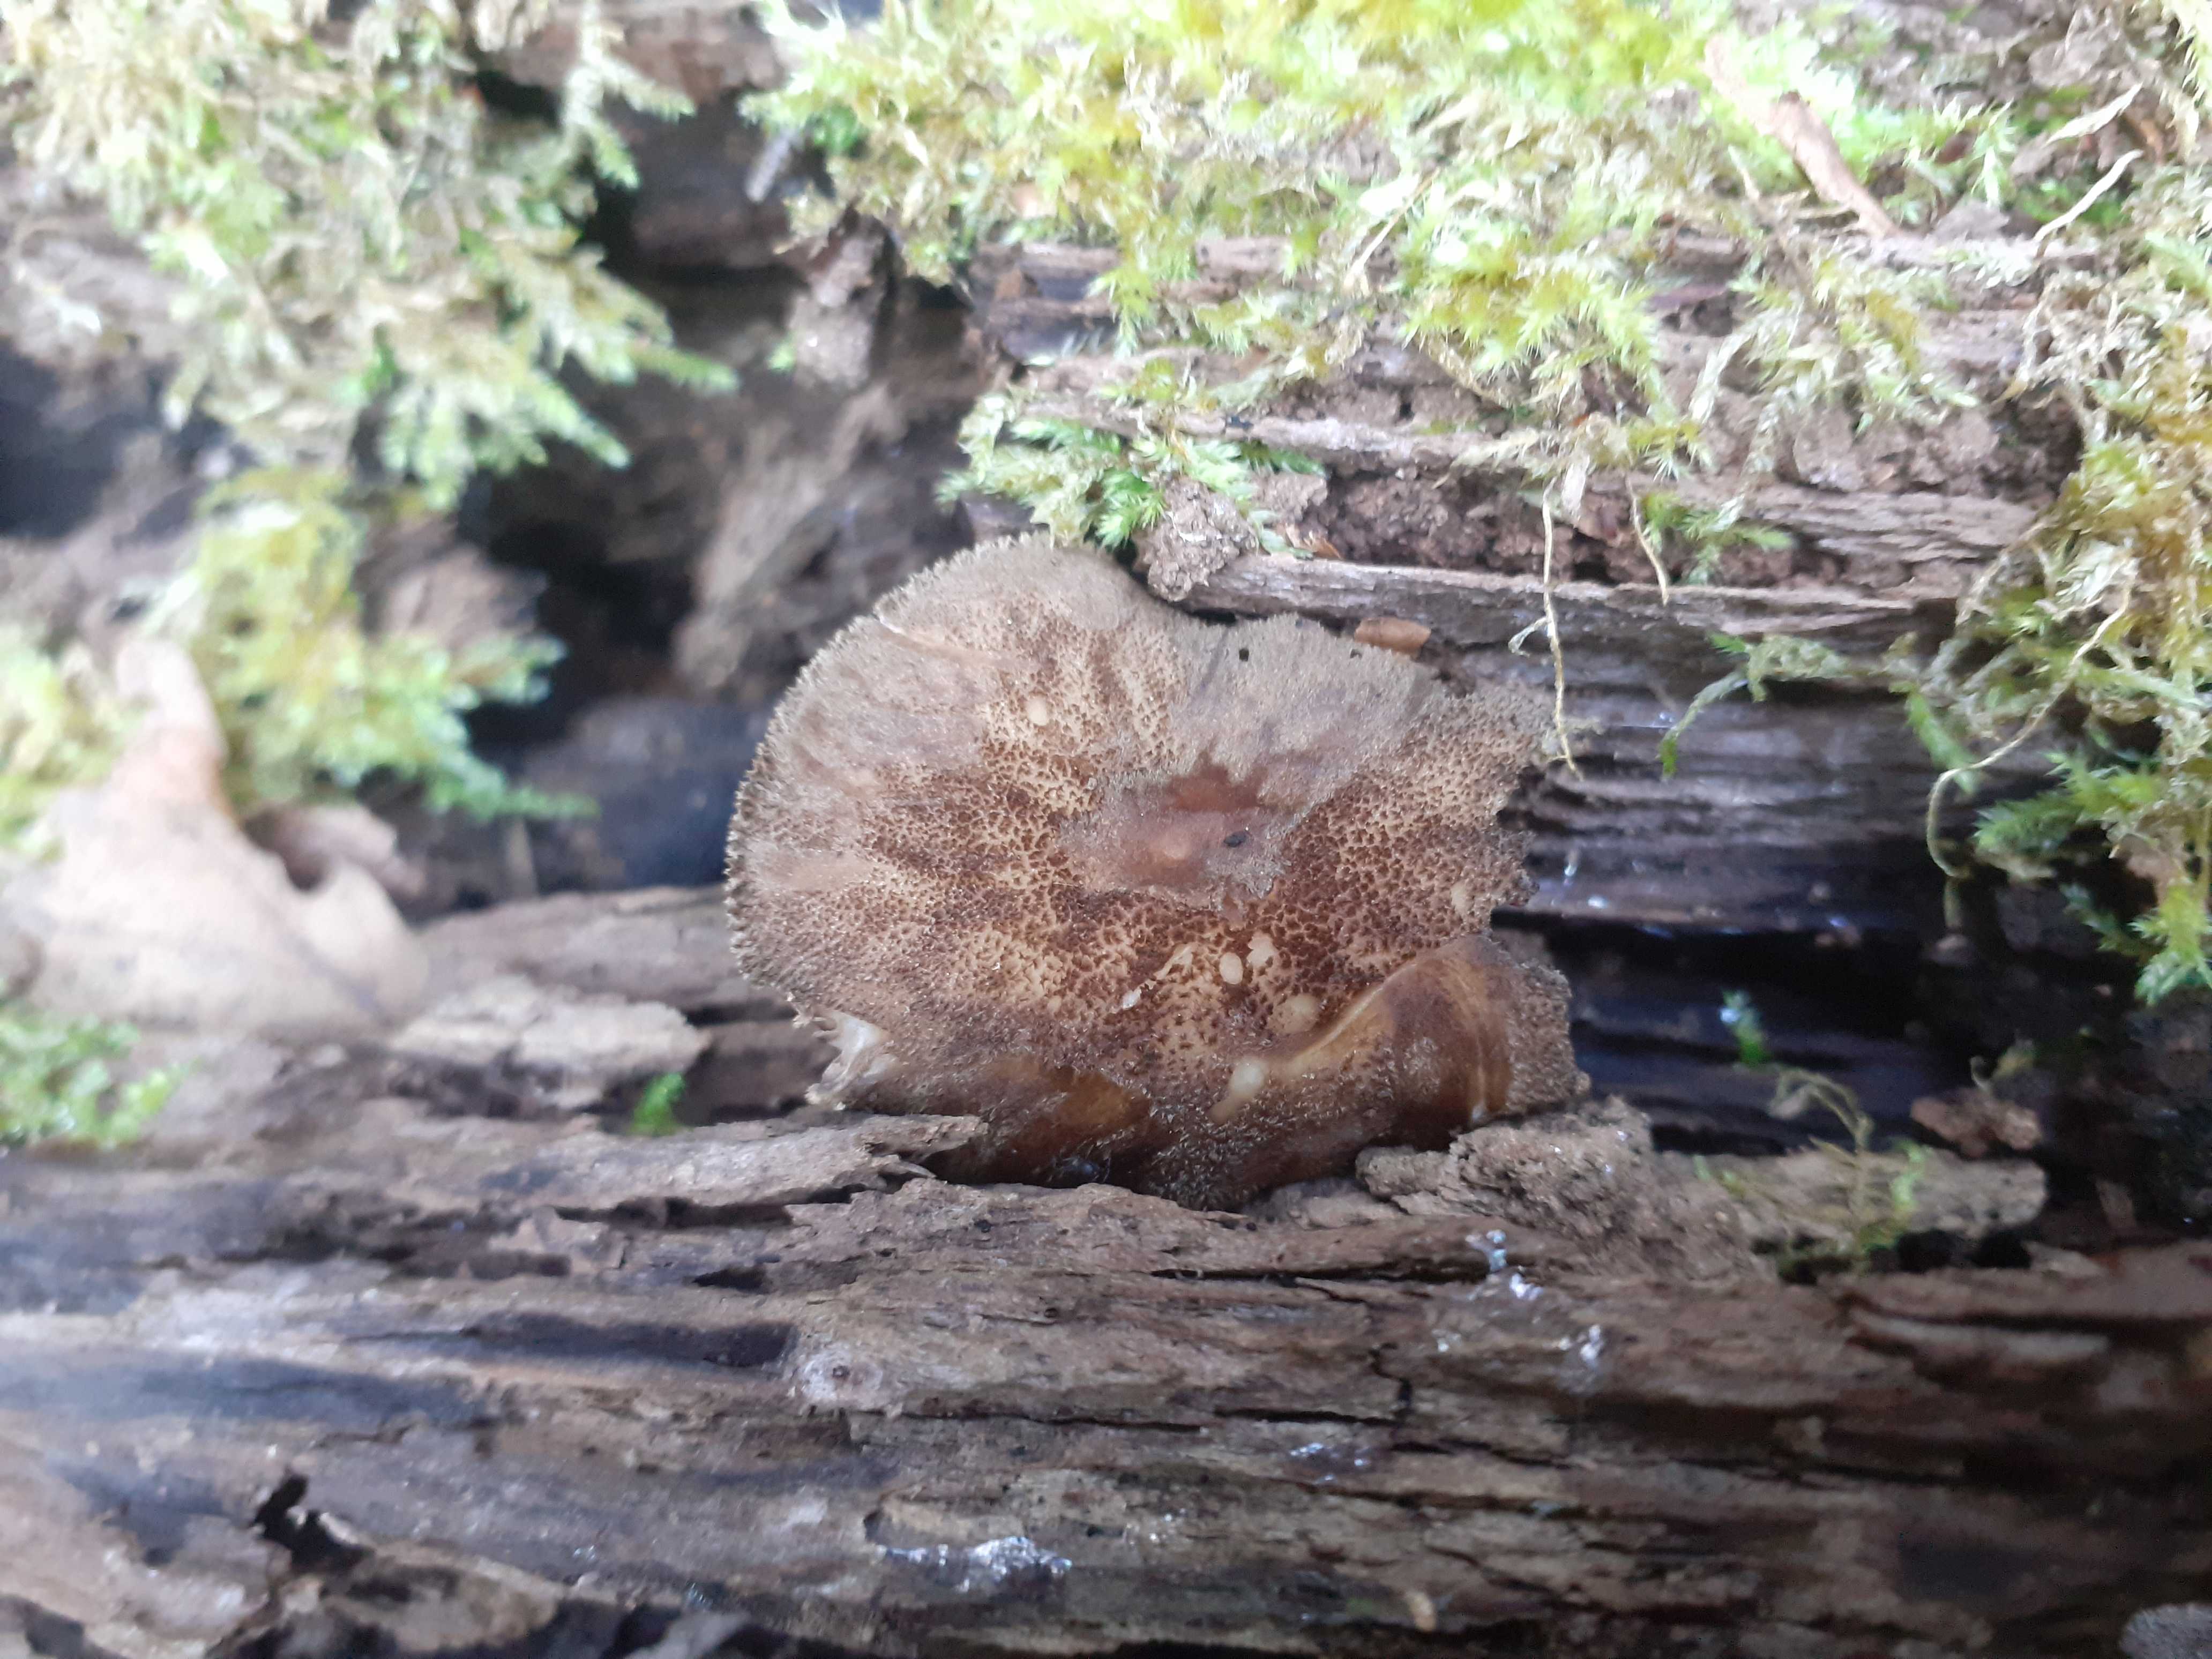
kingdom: Fungi
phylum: Basidiomycota
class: Agaricomycetes
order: Agaricales
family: Pluteaceae
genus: Pluteus
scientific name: Pluteus umbrosus
